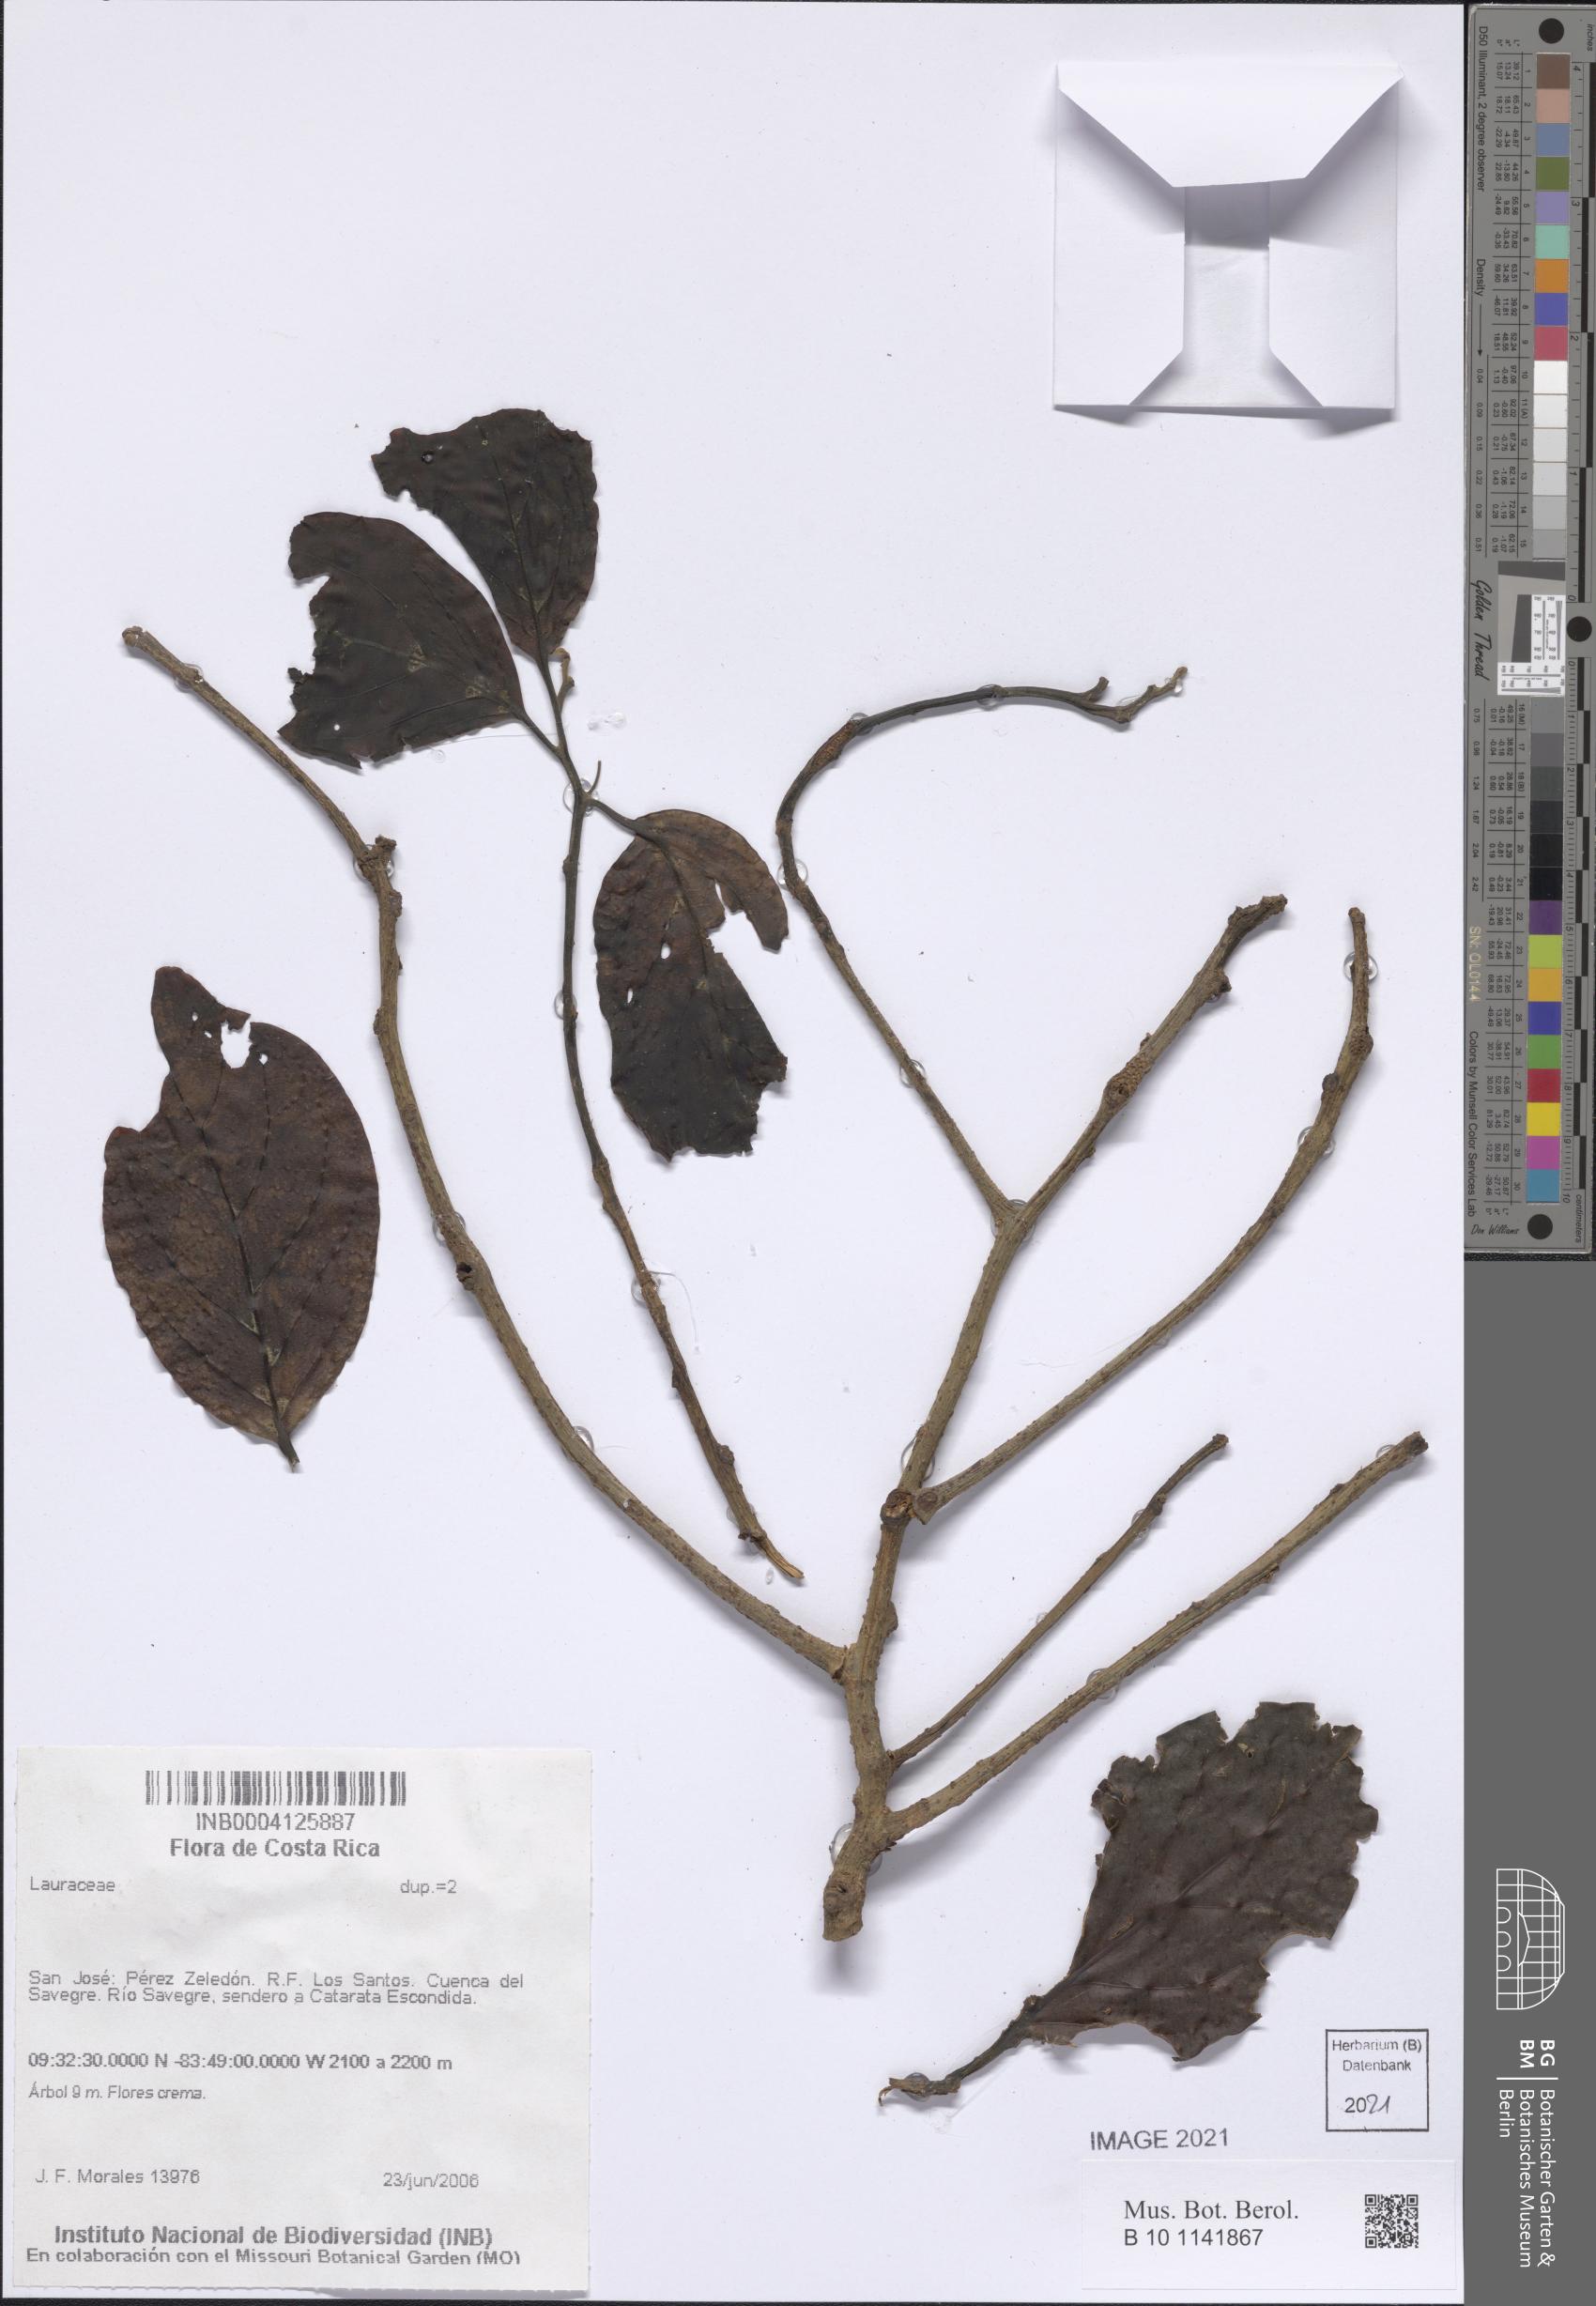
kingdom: Plantae
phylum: Tracheophyta
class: Magnoliopsida
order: Laurales
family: Lauraceae
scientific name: Lauraceae
